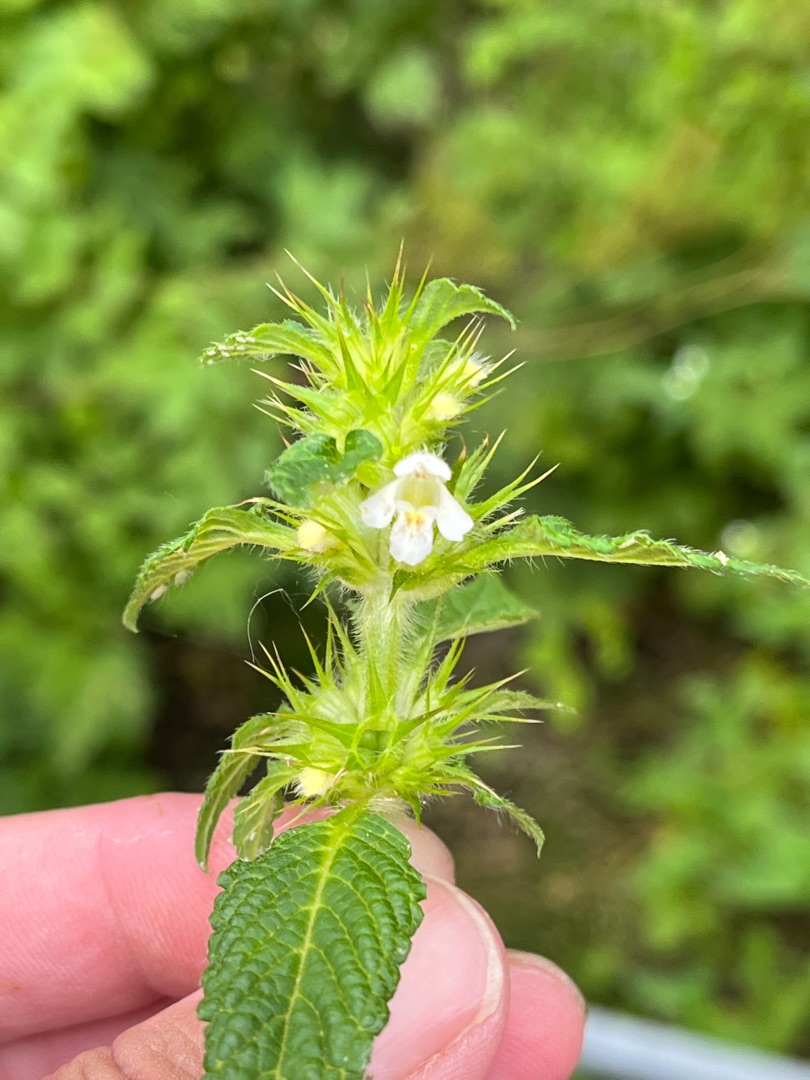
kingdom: Plantae
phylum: Tracheophyta
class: Magnoliopsida
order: Lamiales
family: Lamiaceae
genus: Galeopsis
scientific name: Galeopsis tetrahit
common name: Almindelig hanekro
